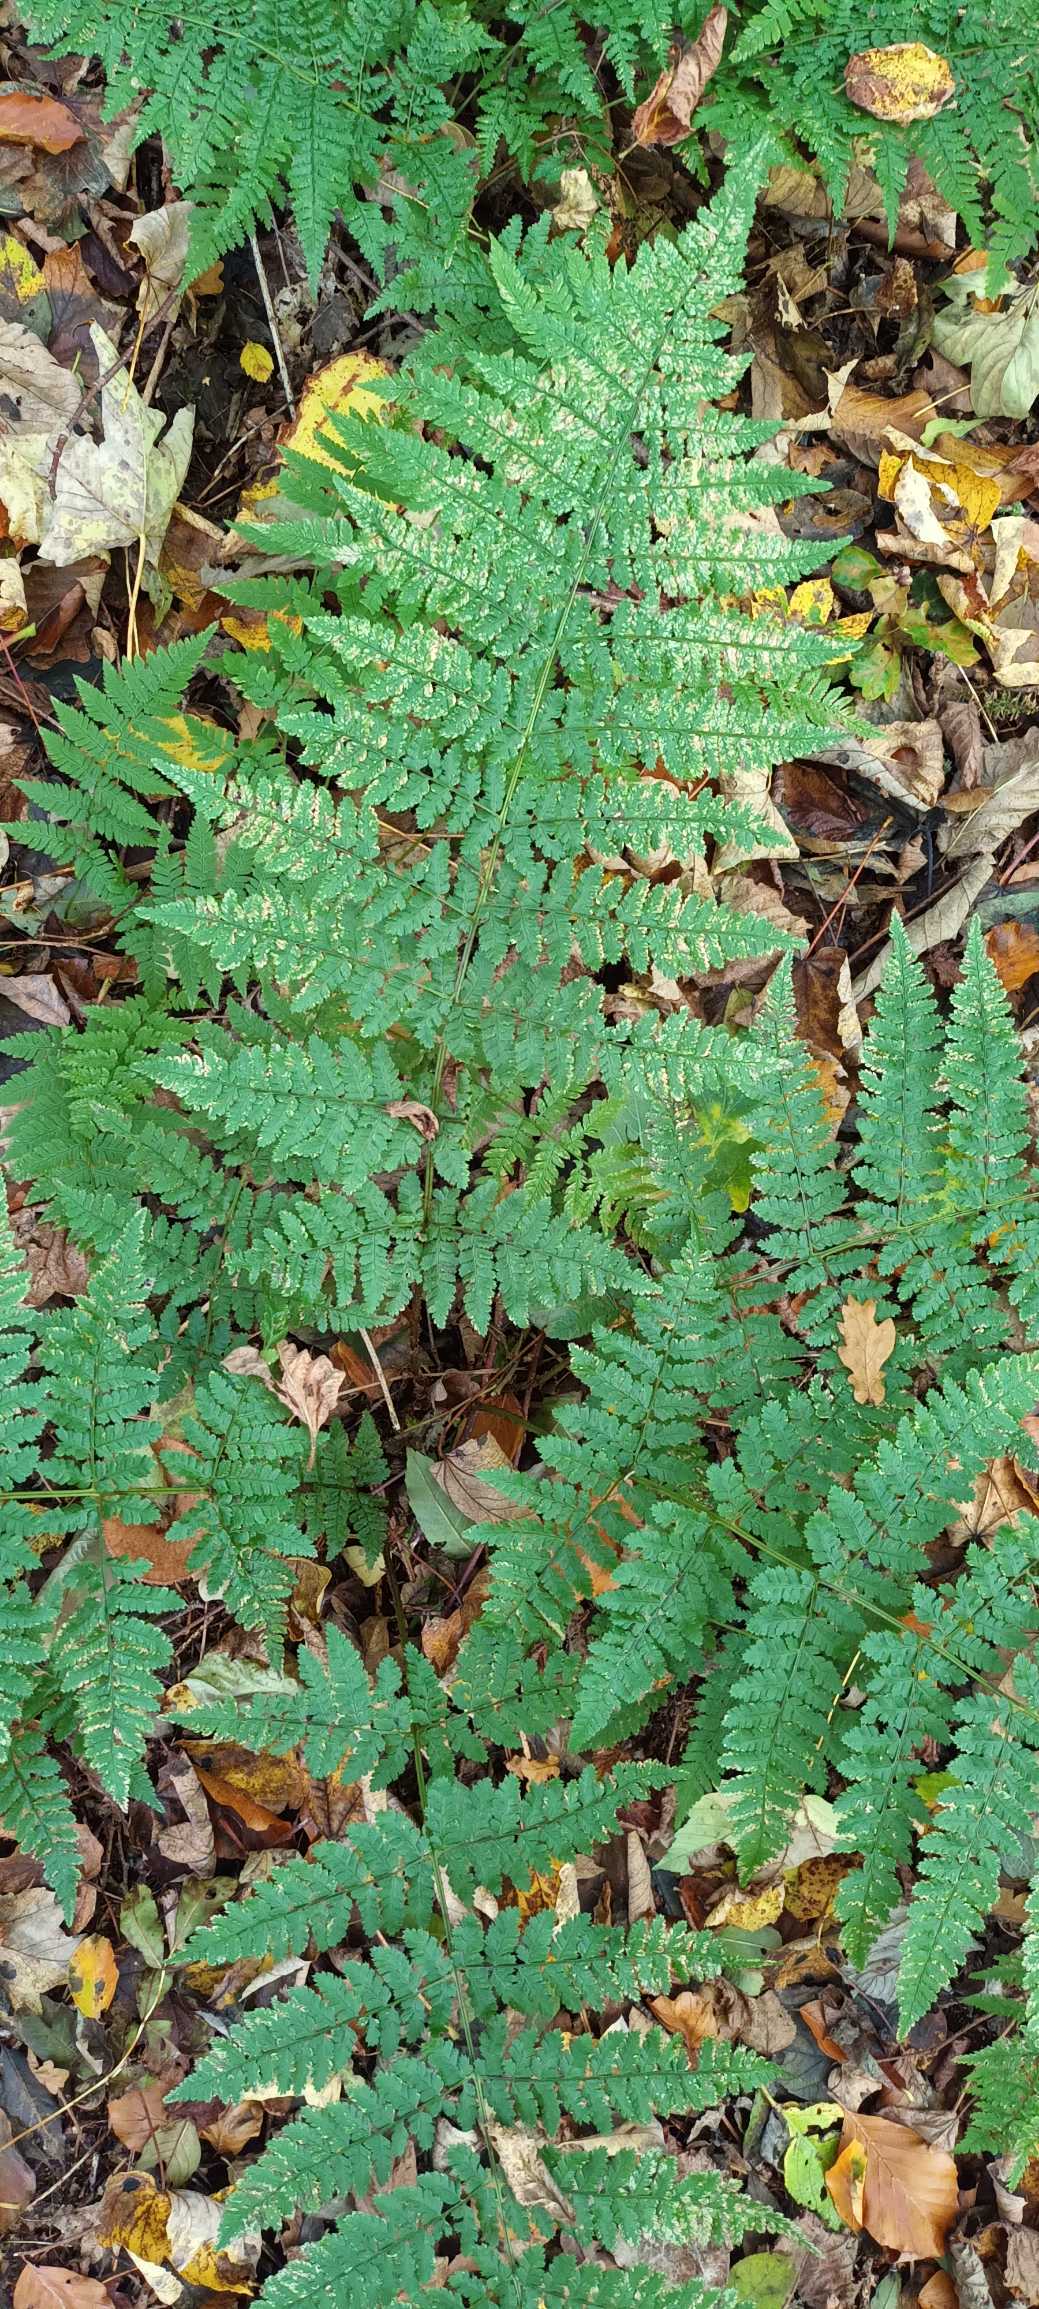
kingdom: Plantae
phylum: Tracheophyta
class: Polypodiopsida
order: Polypodiales
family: Dryopteridaceae
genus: Dryopteris
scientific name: Dryopteris dilatata
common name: Bredbladet mangeløv
